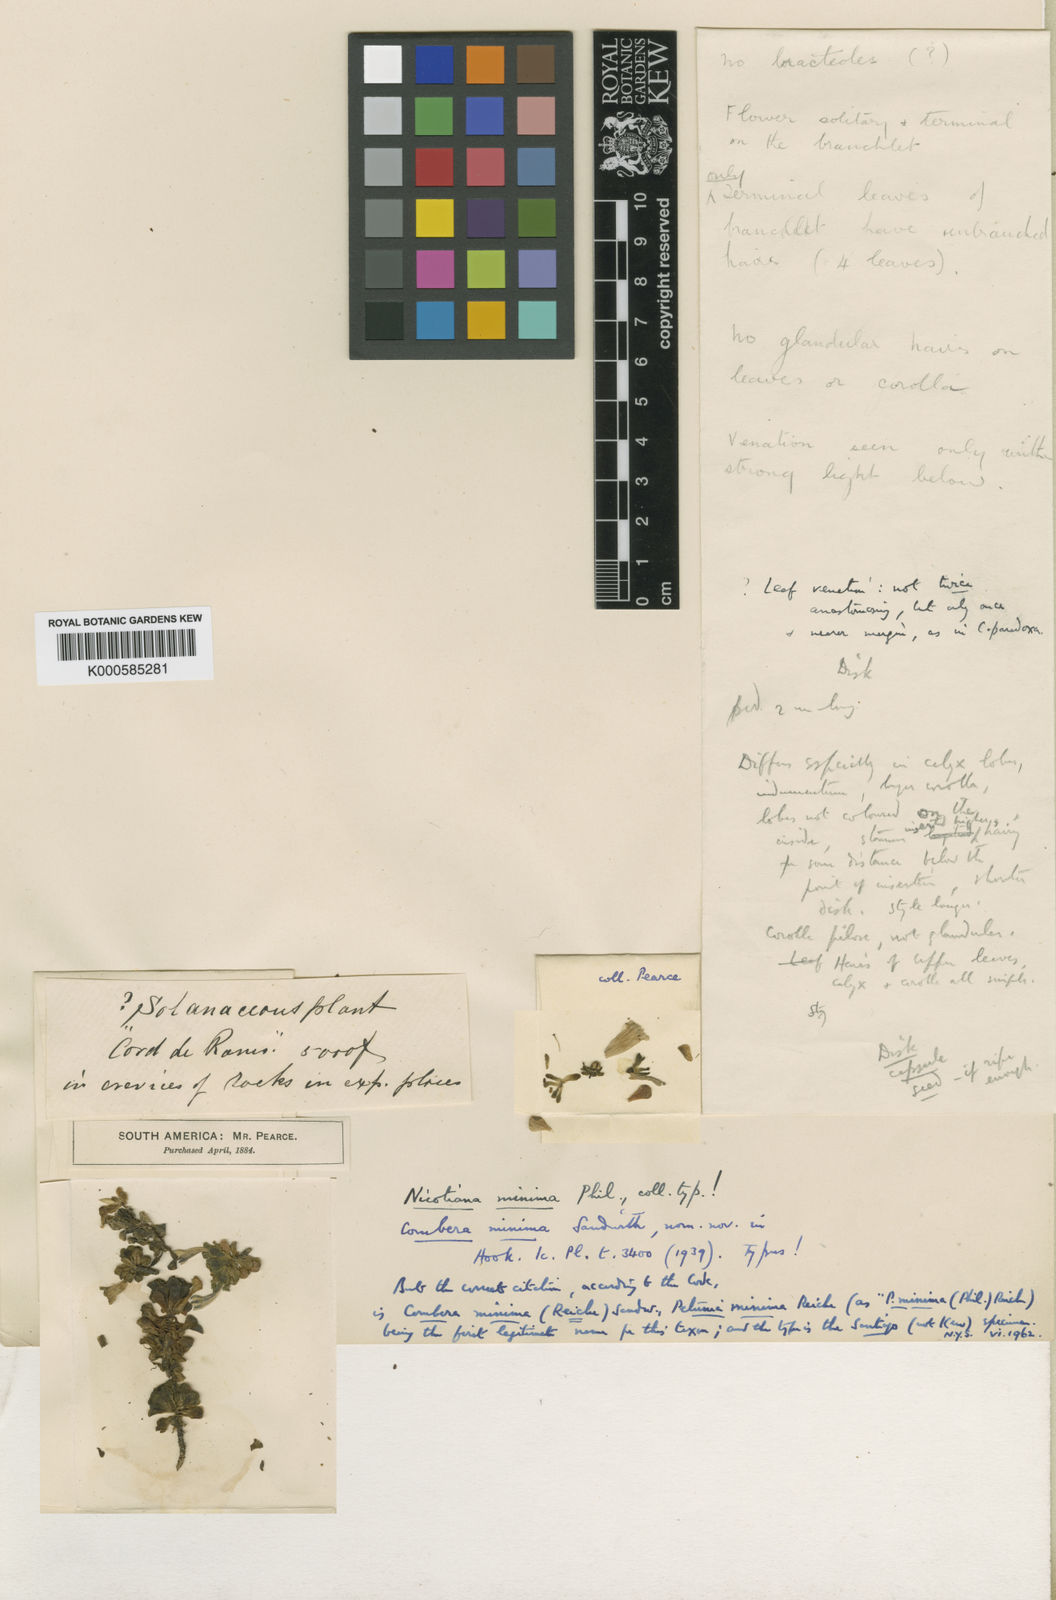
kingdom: Plantae
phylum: Tracheophyta
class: Magnoliopsida
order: Solanales
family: Solanaceae
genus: Combera
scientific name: Combera minima
